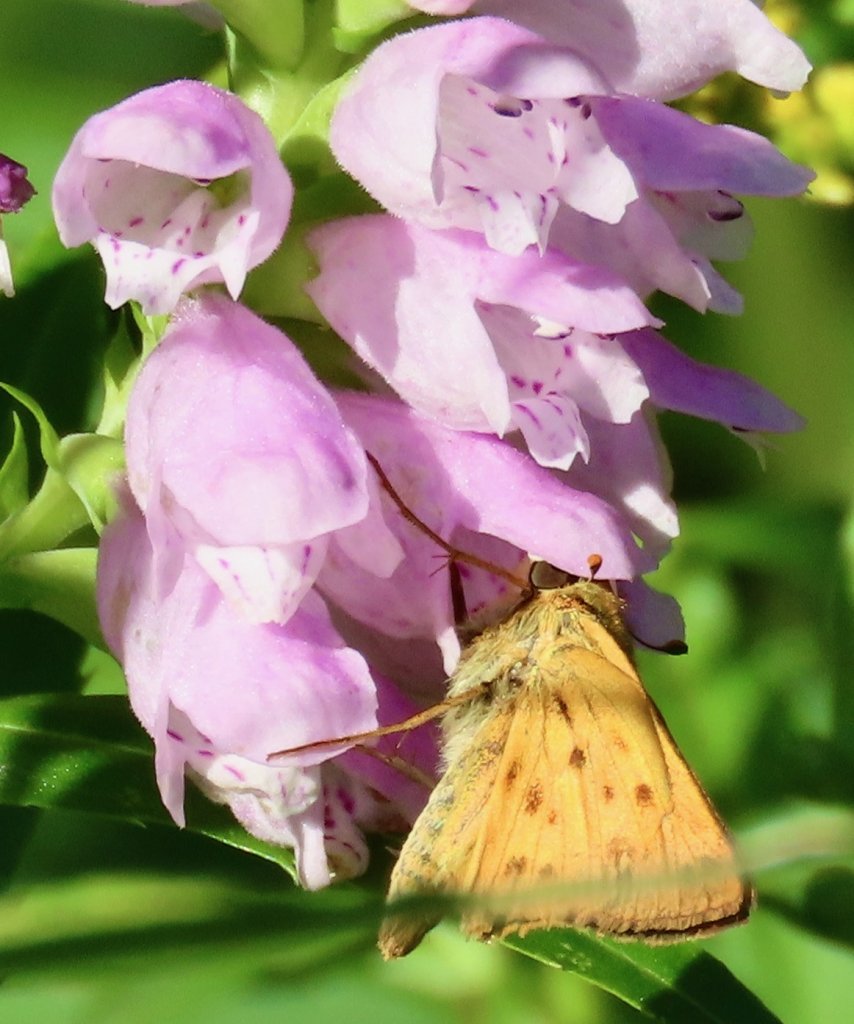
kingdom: Animalia
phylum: Arthropoda
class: Insecta
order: Lepidoptera
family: Hesperiidae
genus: Hylephila
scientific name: Hylephila phyleus
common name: Fiery Skipper
